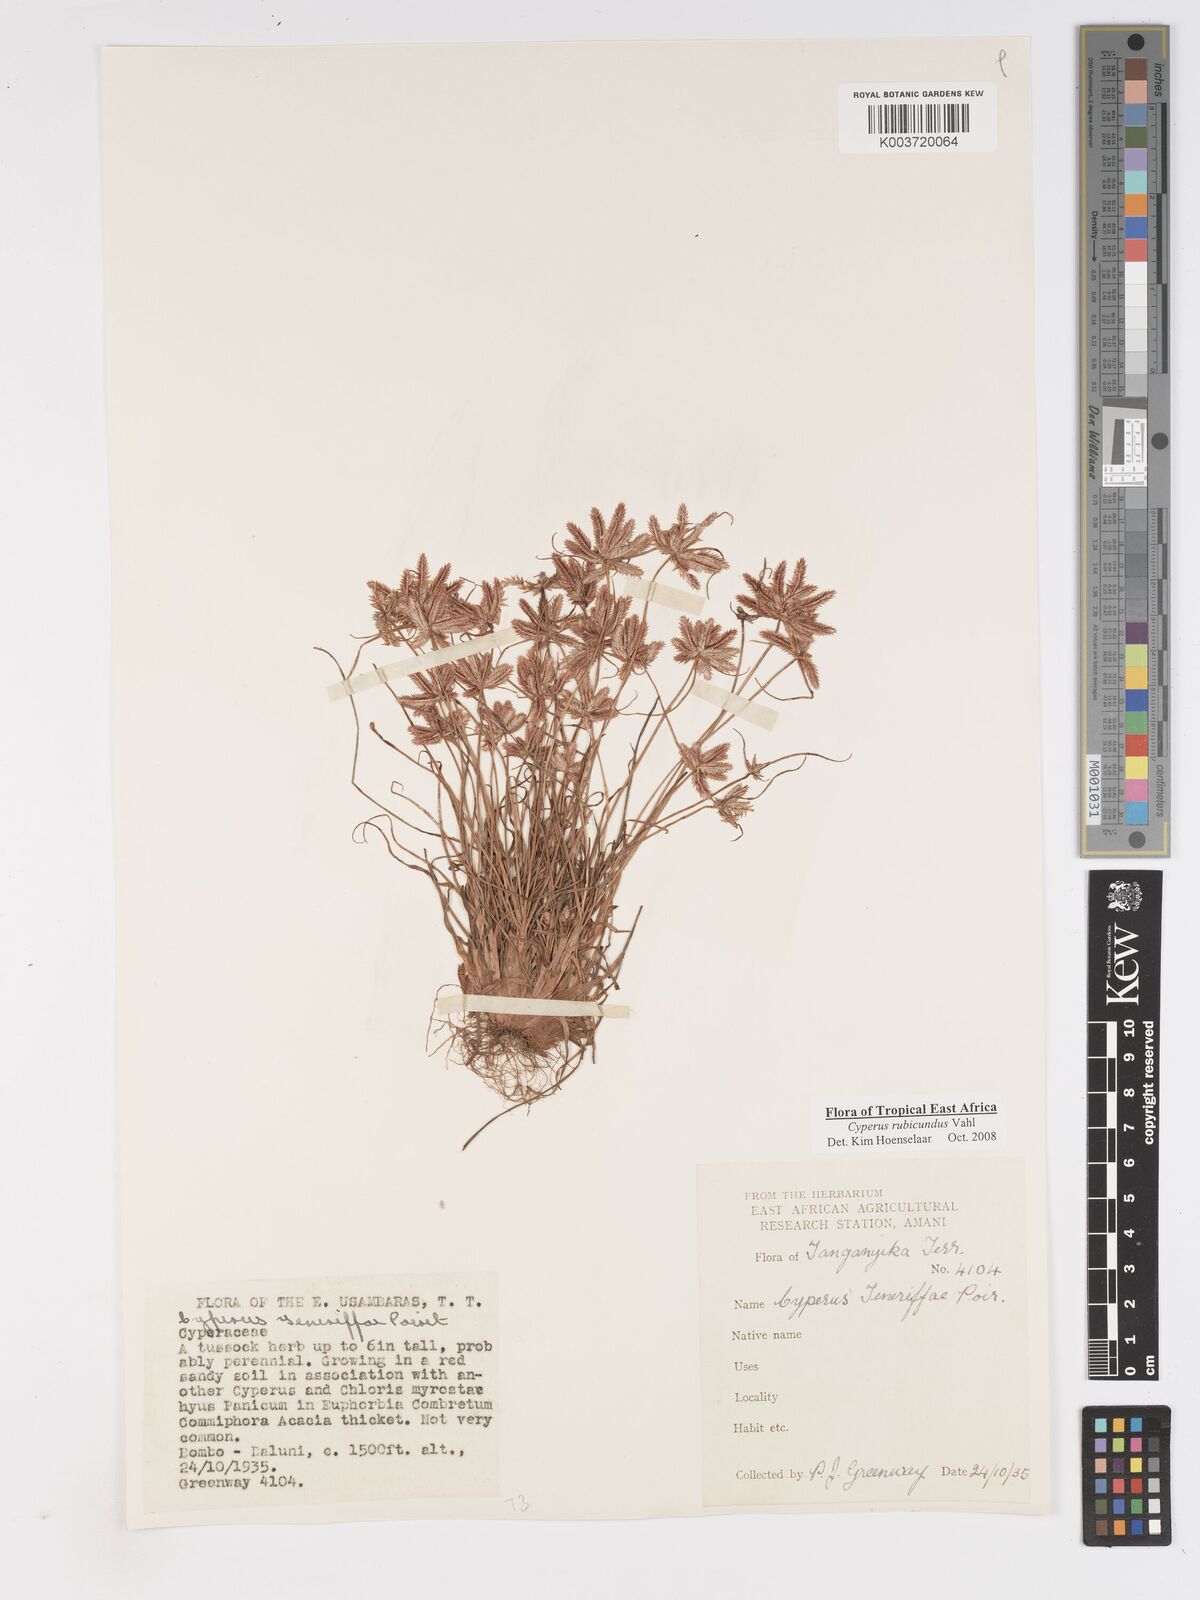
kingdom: Plantae
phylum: Tracheophyta
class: Liliopsida
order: Poales
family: Cyperaceae
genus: Cyperus
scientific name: Cyperus rubicundus
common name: Coco-grass
